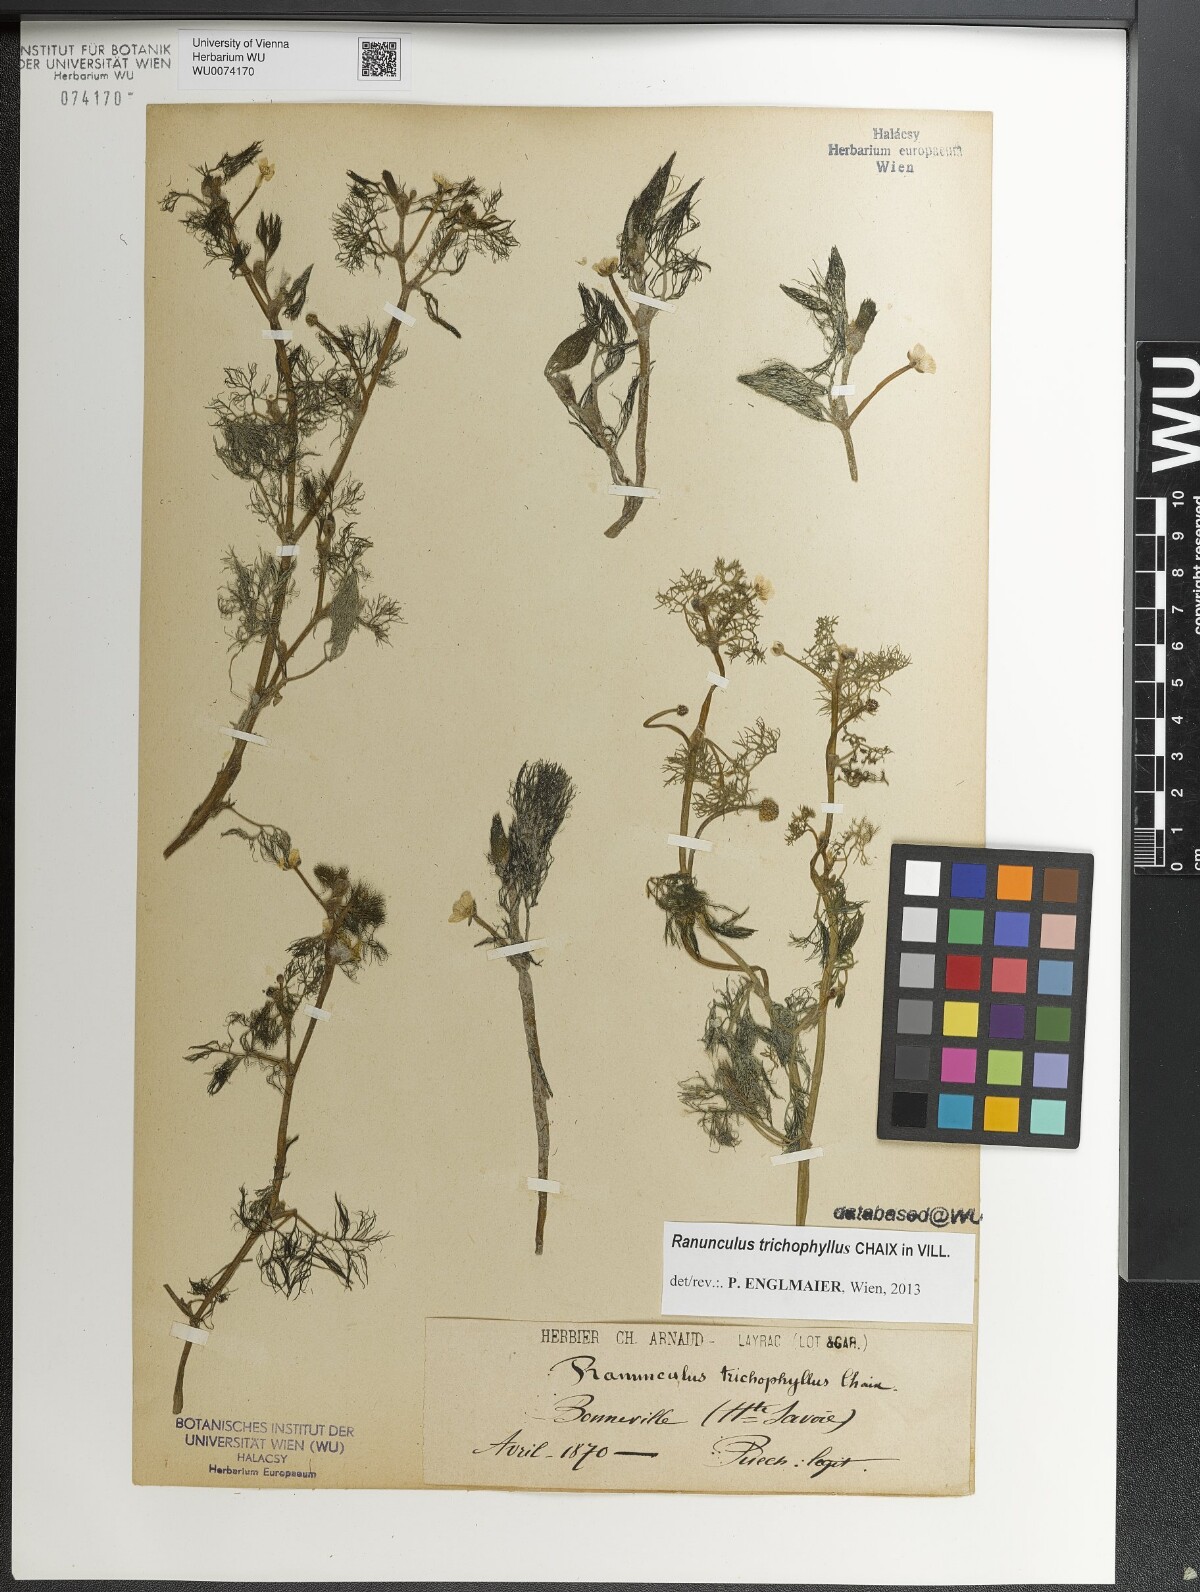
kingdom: Plantae
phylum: Tracheophyta
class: Magnoliopsida
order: Ranunculales
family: Ranunculaceae
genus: Ranunculus
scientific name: Ranunculus trichophyllus
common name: Thread-leaved water-crowfoot
